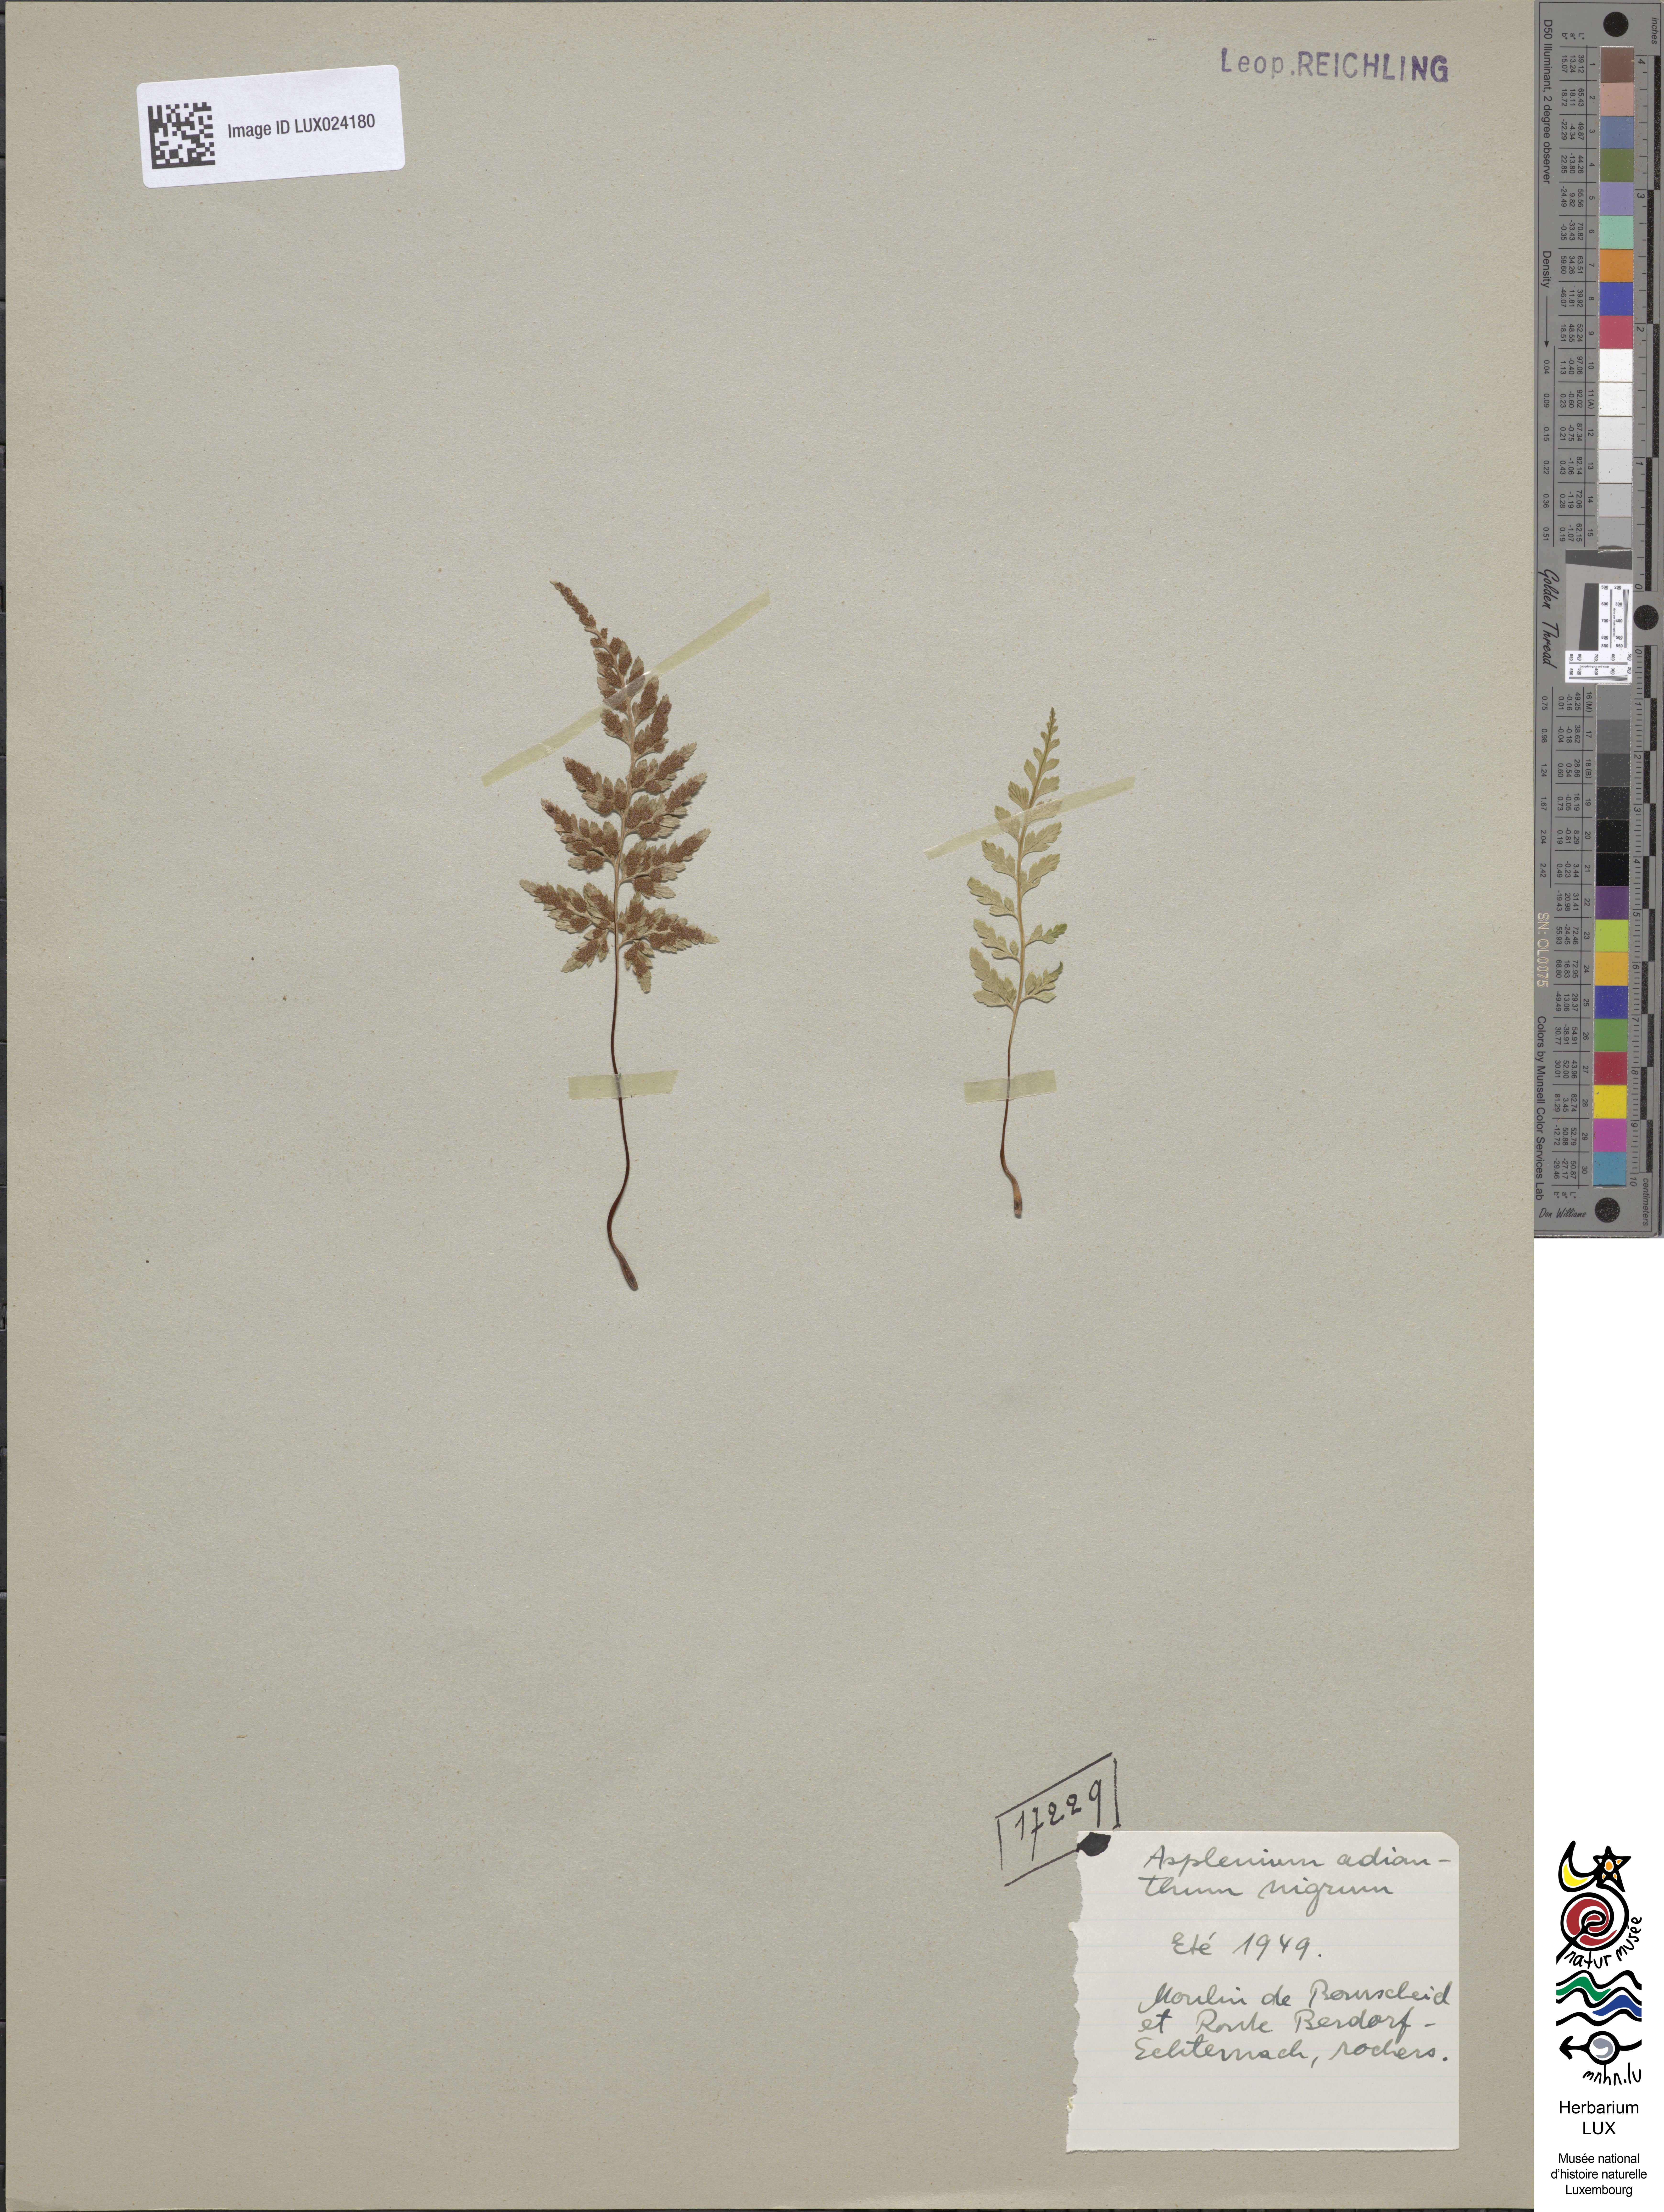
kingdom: Plantae
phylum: Tracheophyta
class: Polypodiopsida
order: Polypodiales
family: Aspleniaceae
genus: Asplenium
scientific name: Asplenium adiantum-nigrum
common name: Black spleenwort
